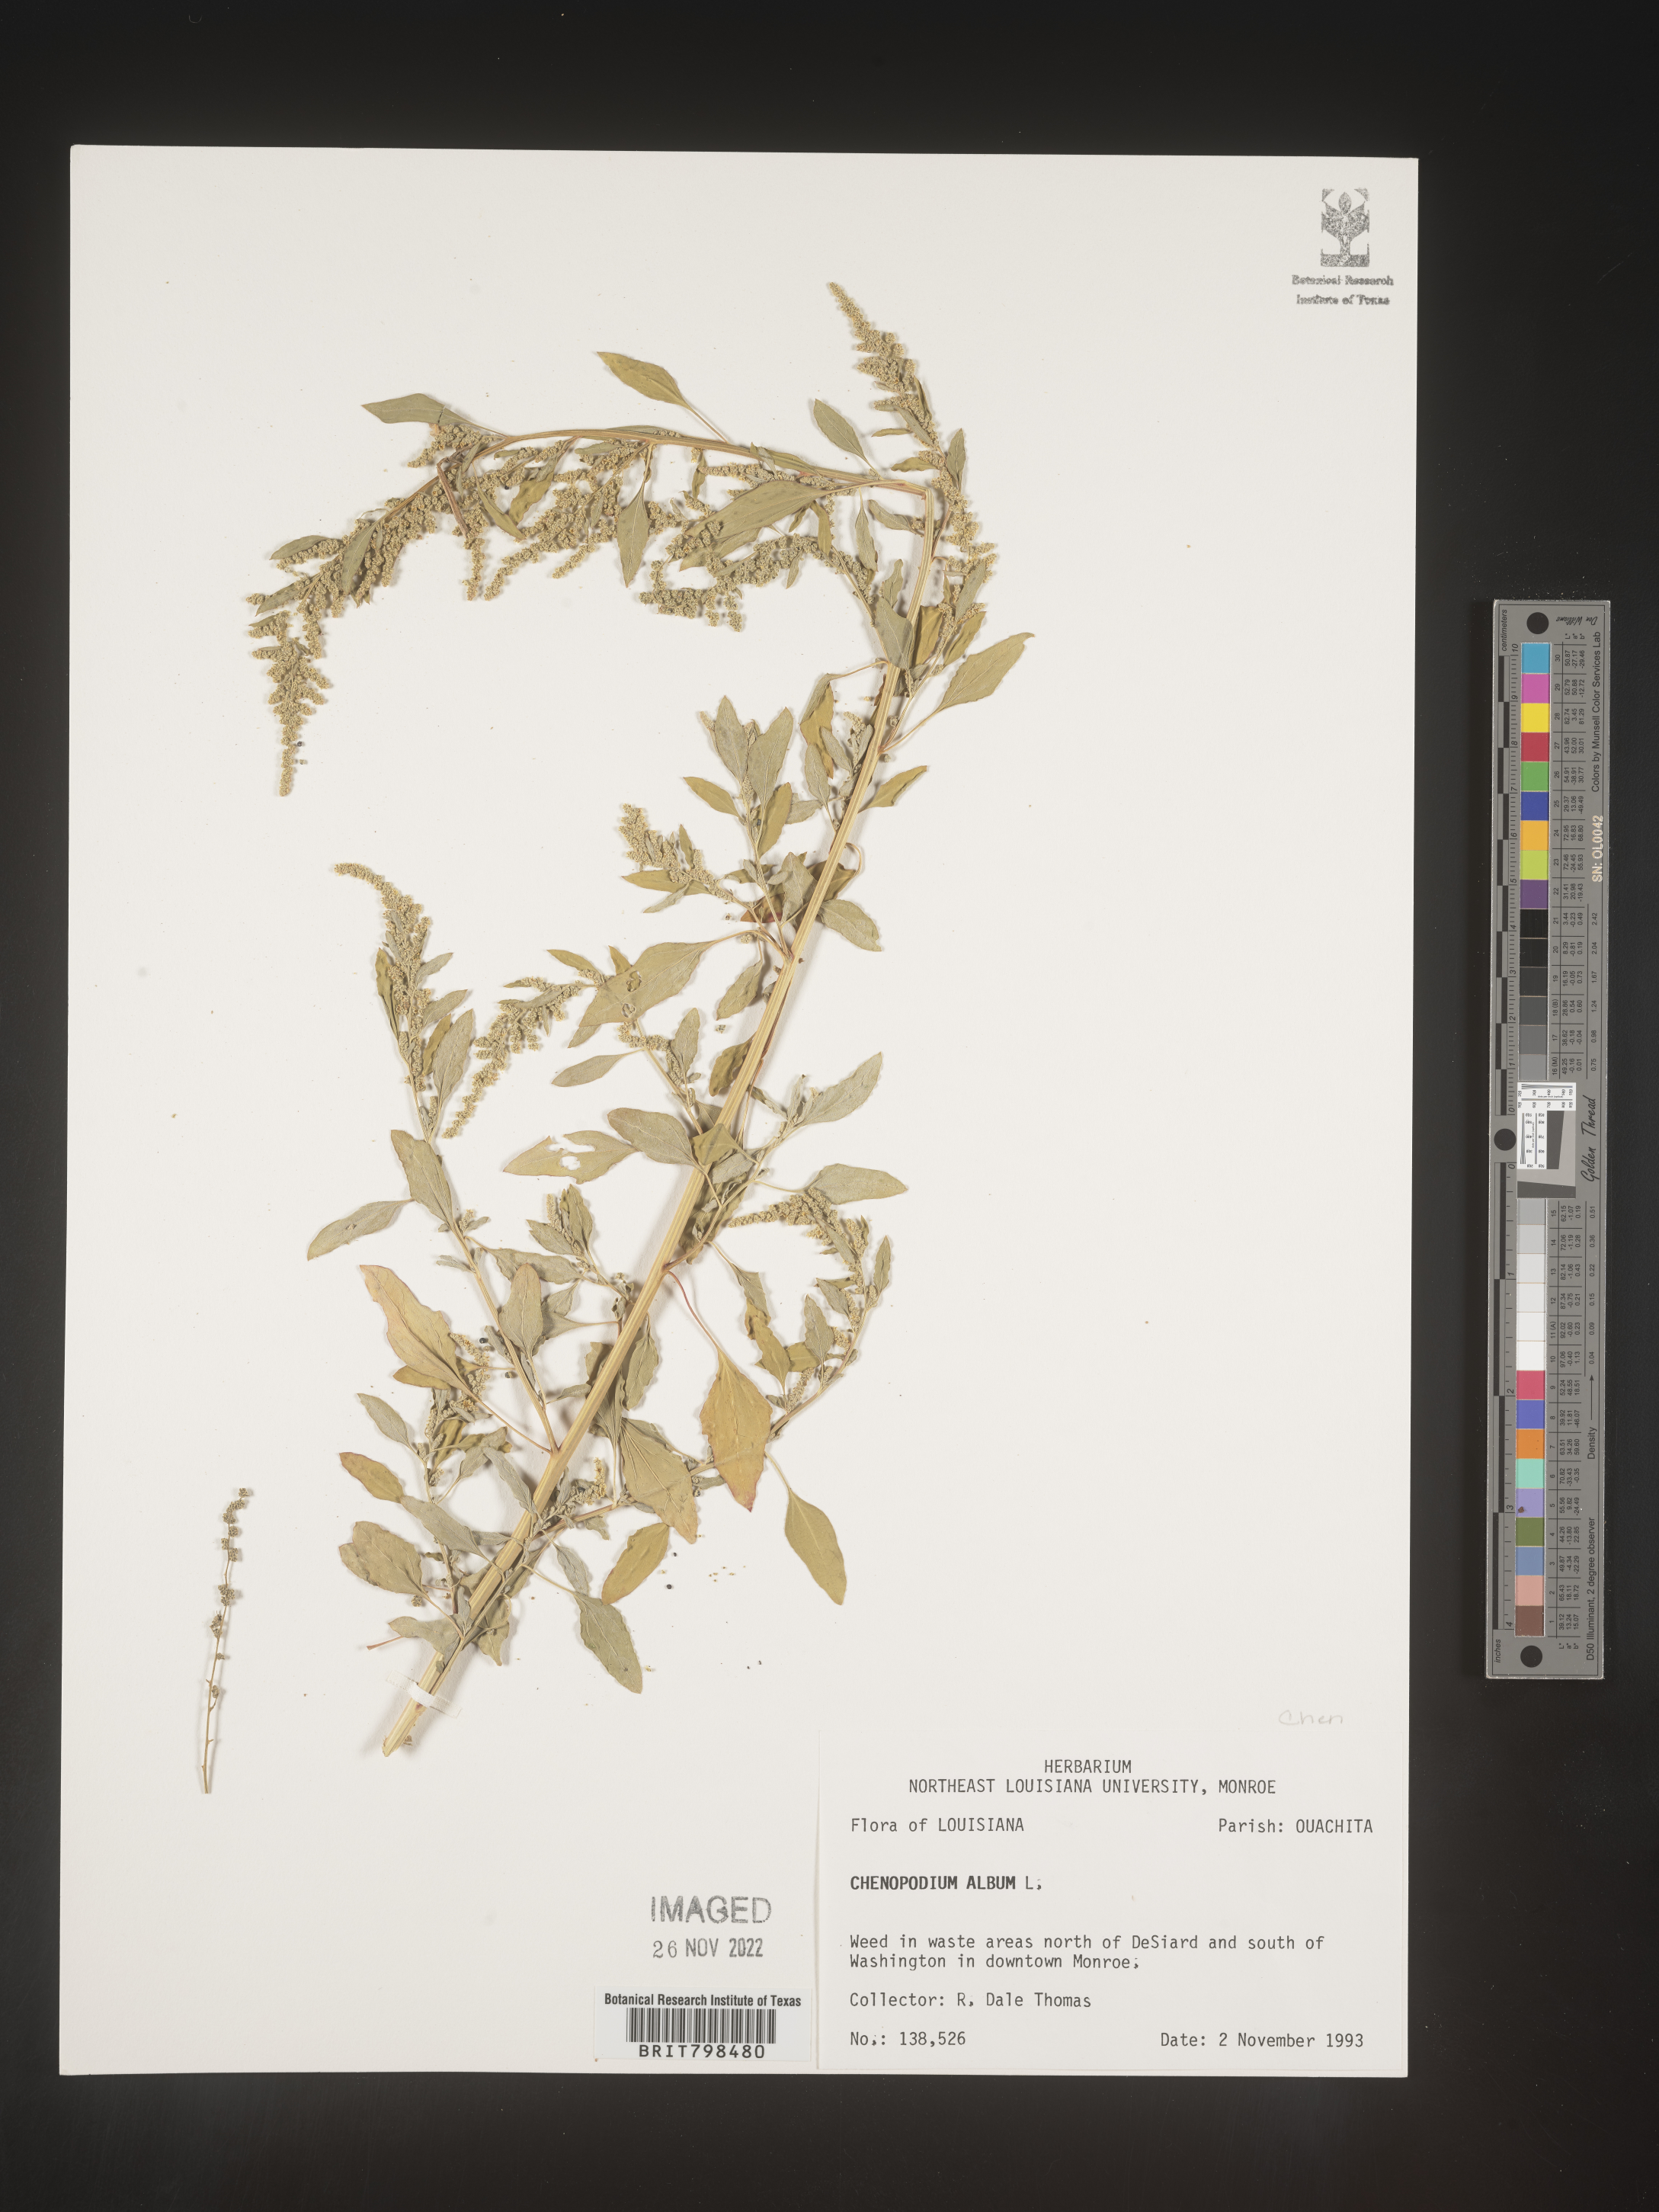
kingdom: Plantae
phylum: Tracheophyta
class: Magnoliopsida
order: Caryophyllales
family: Amaranthaceae
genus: Chenopodium
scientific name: Chenopodium album
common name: Fat-hen
